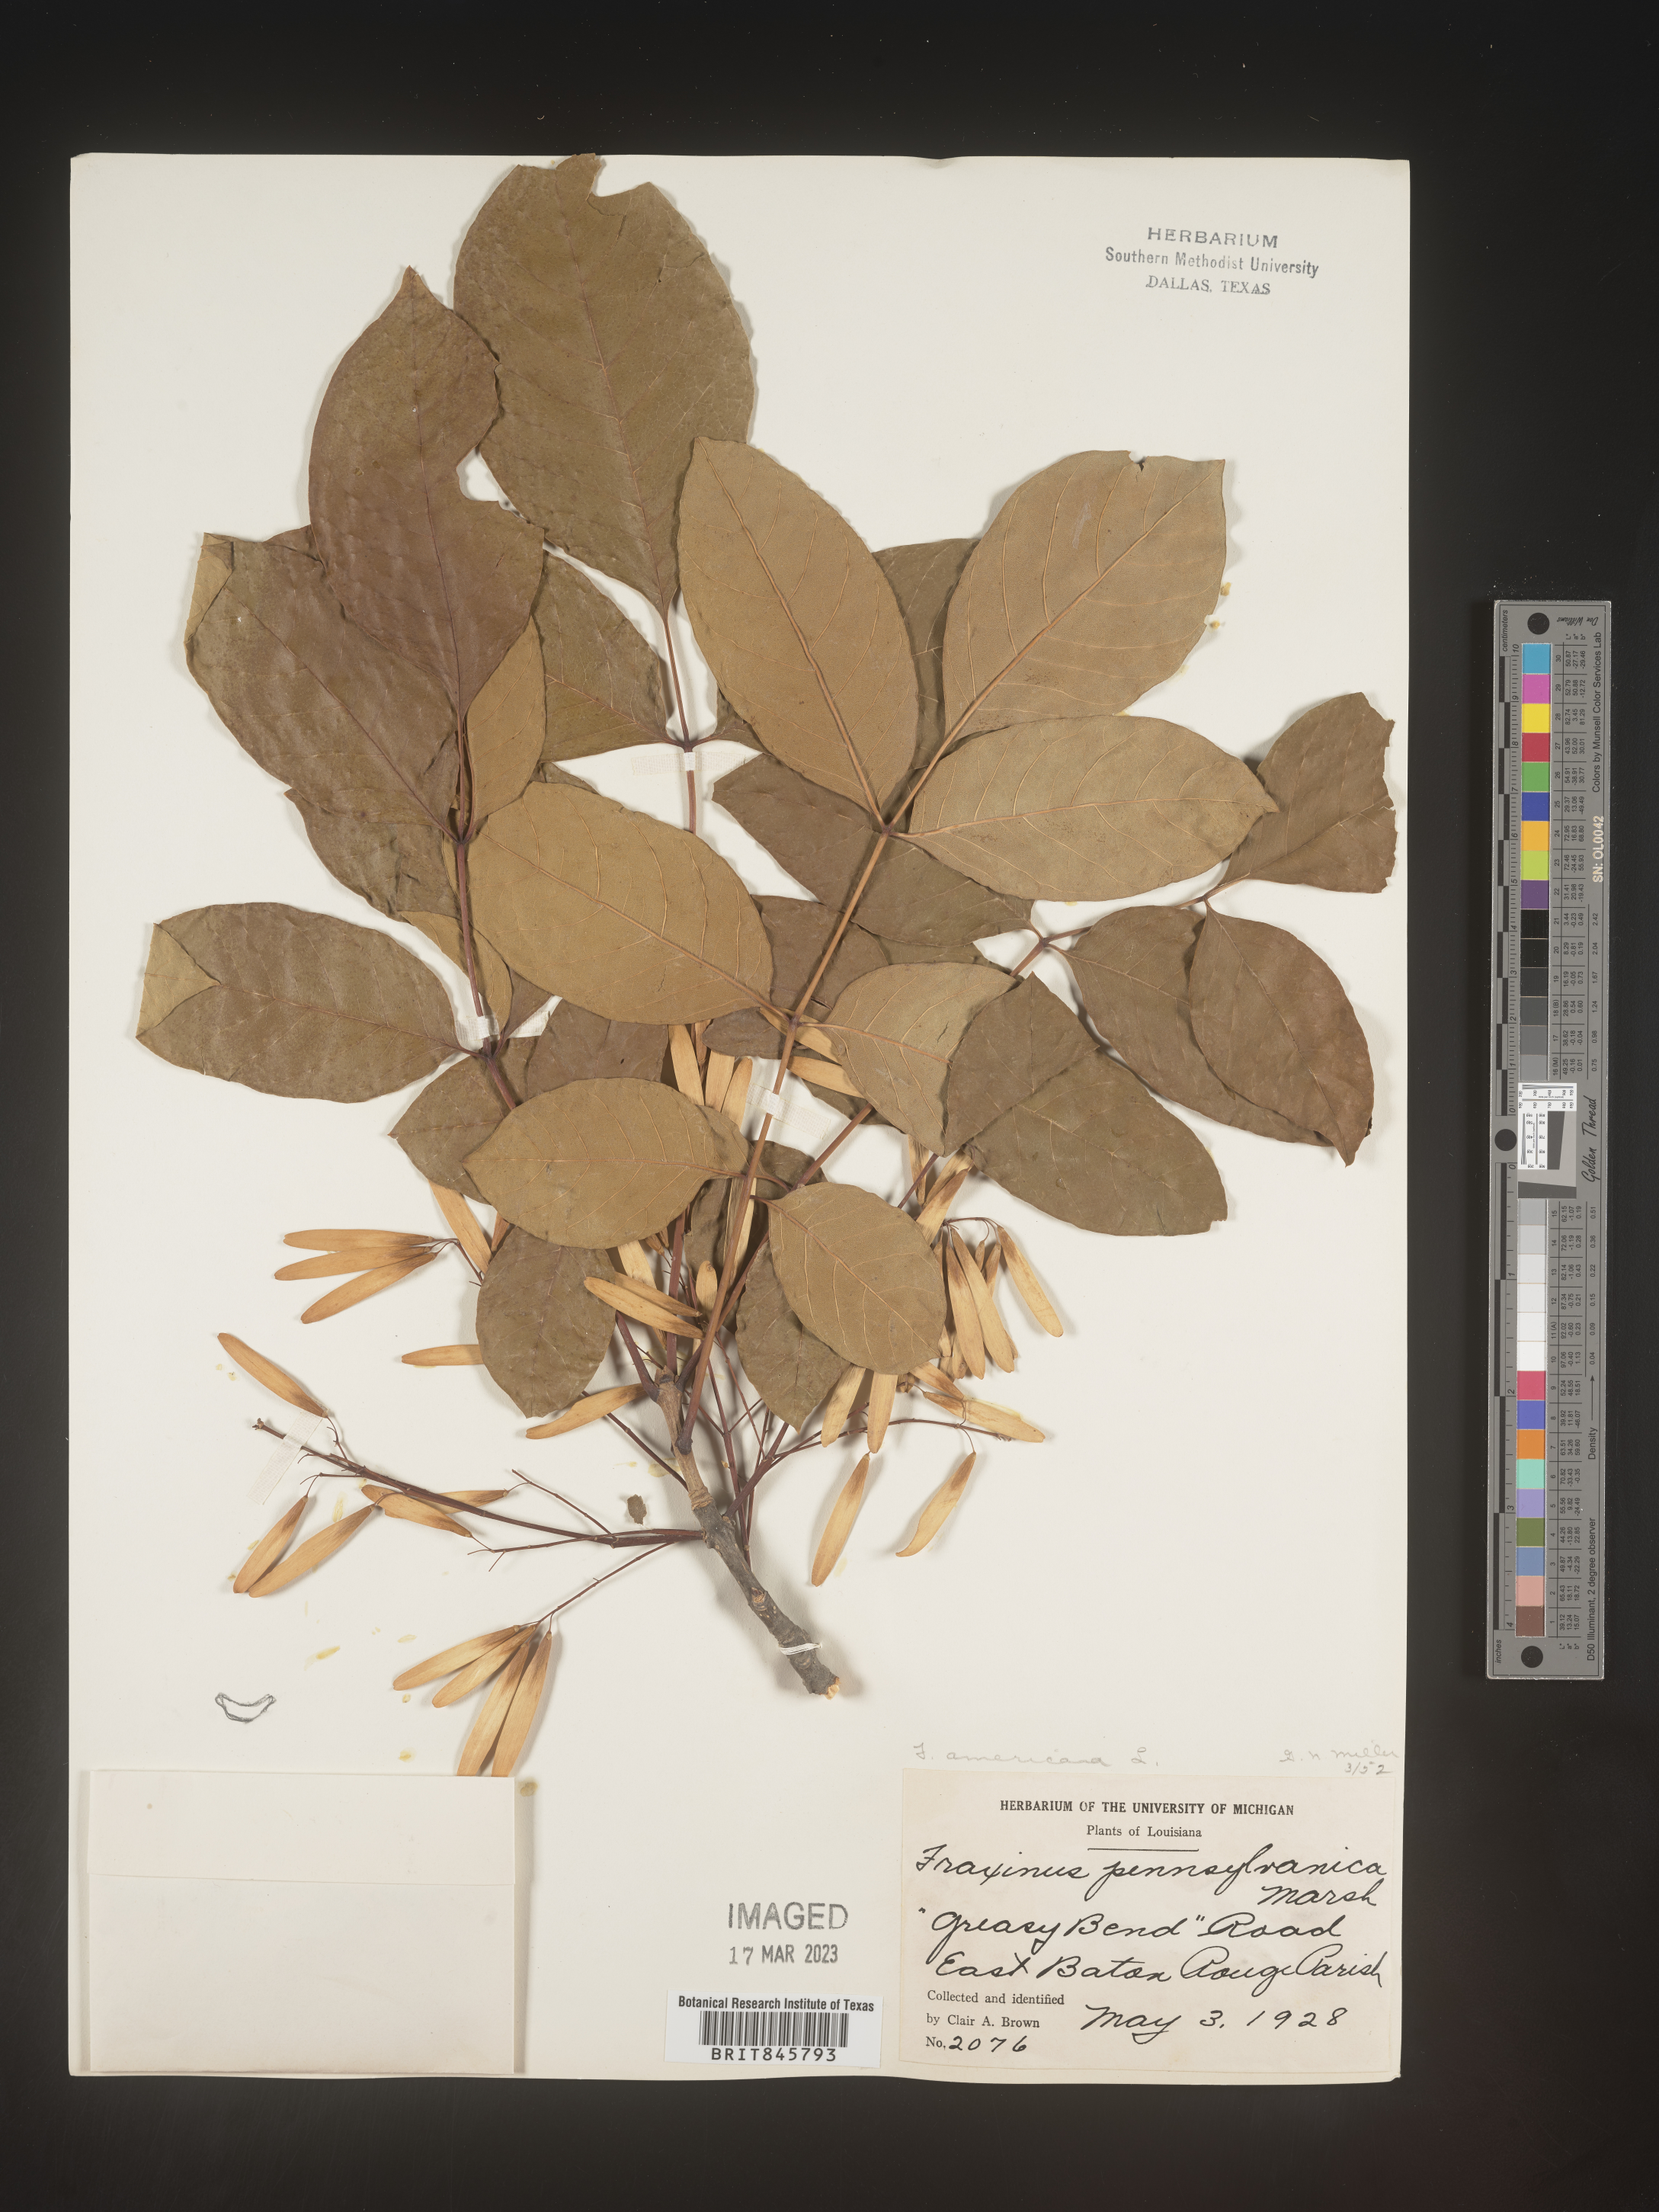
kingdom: Plantae
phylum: Tracheophyta
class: Magnoliopsida
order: Lamiales
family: Oleaceae
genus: Fraxinus
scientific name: Fraxinus americana
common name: White ash
